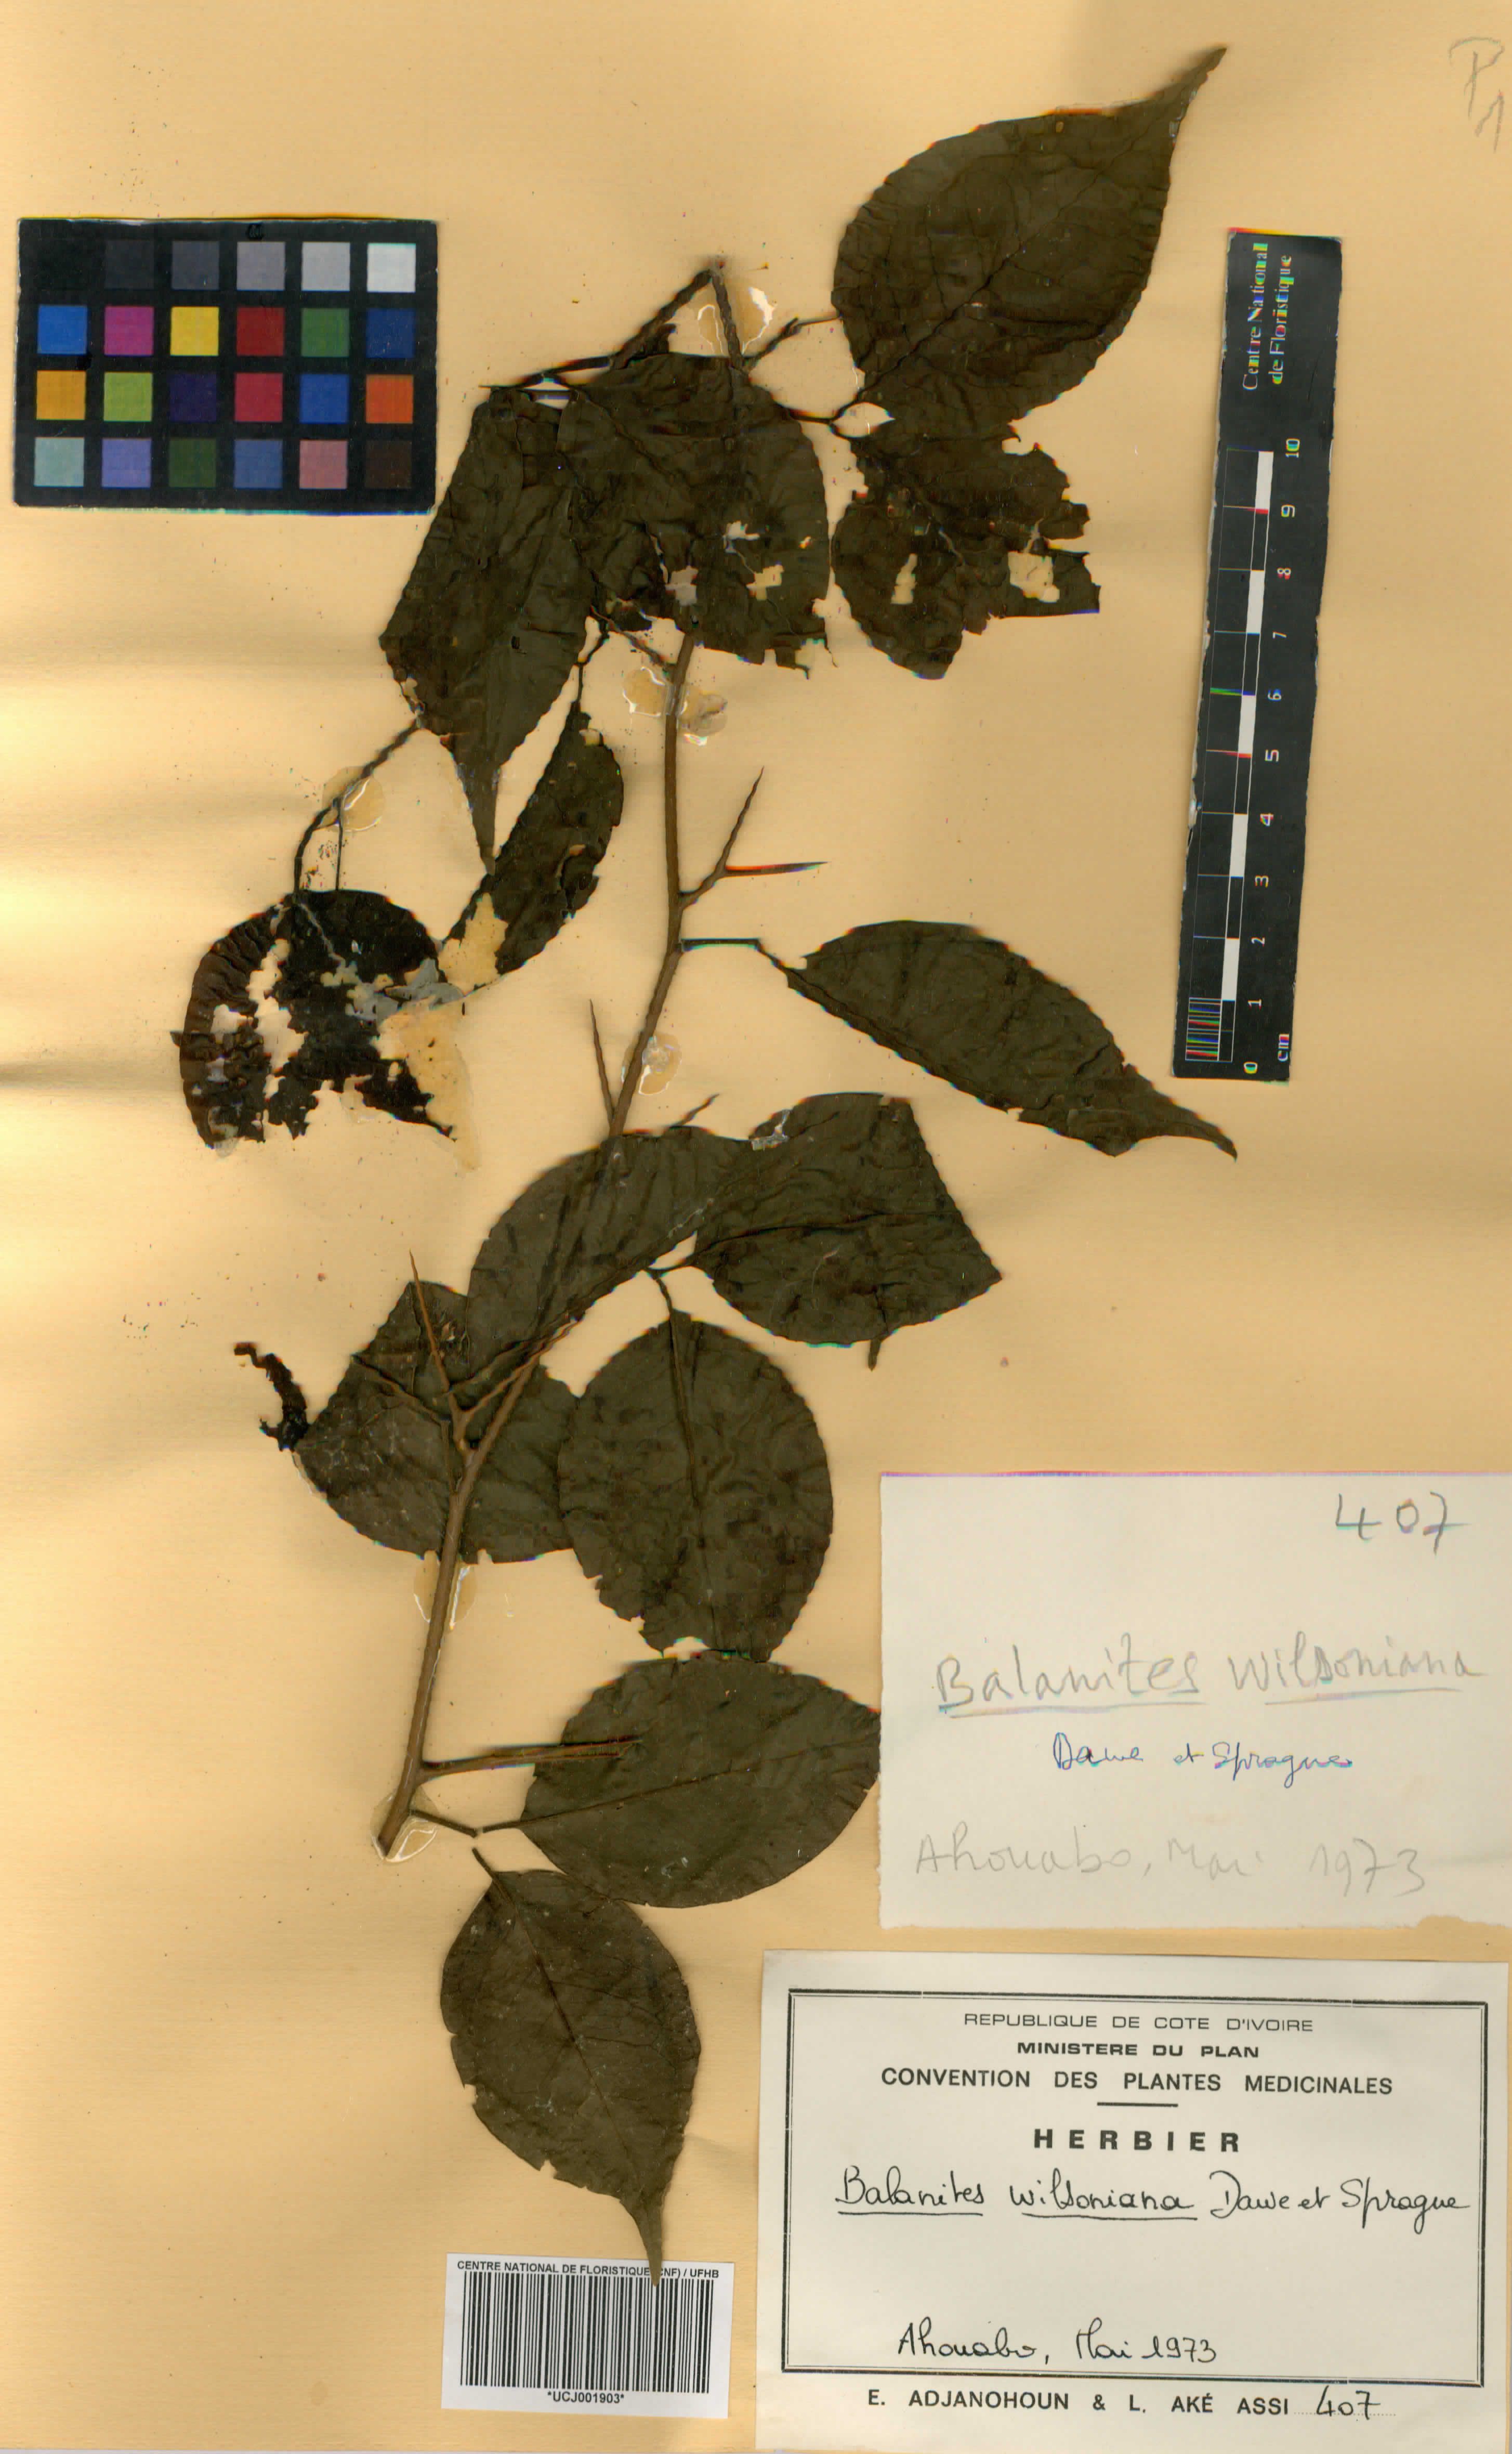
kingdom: Plantae
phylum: Tracheophyta
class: Magnoliopsida
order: Zygophyllales
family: Zygophyllaceae
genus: Balanites
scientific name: Balanites wilsoniana
